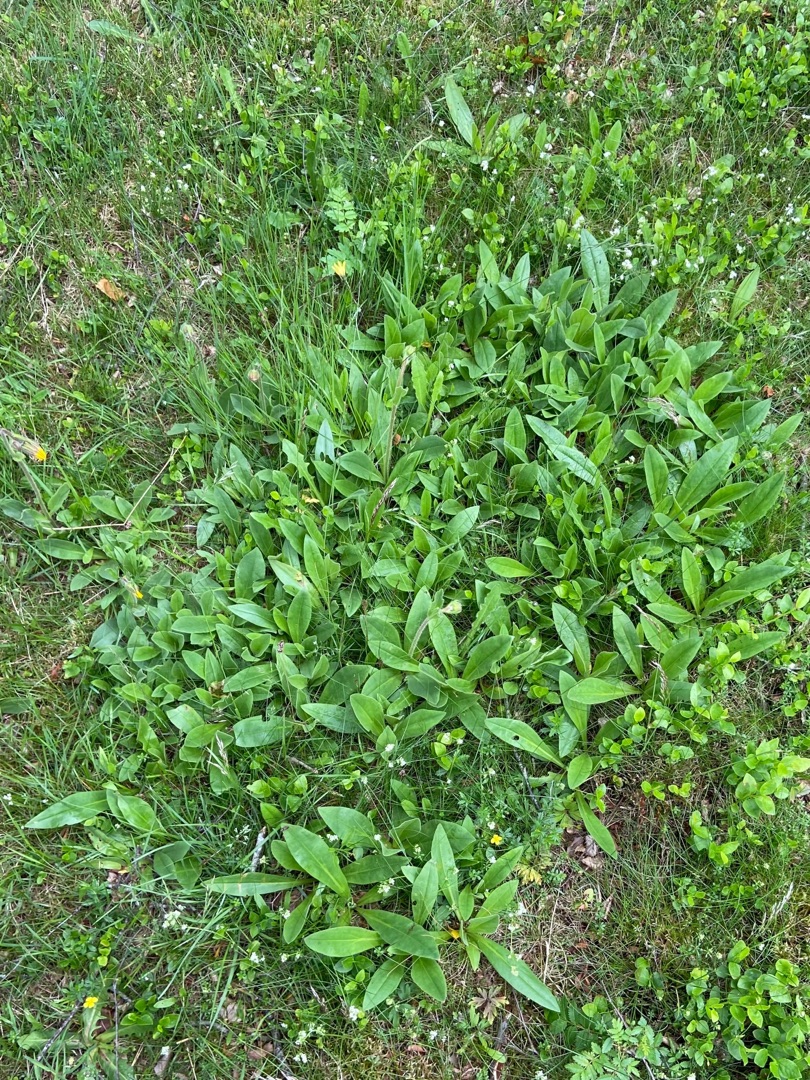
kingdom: Plantae
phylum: Tracheophyta
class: Magnoliopsida
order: Asterales
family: Asteraceae
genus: Arnica
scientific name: Arnica montana
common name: Guldblomme
